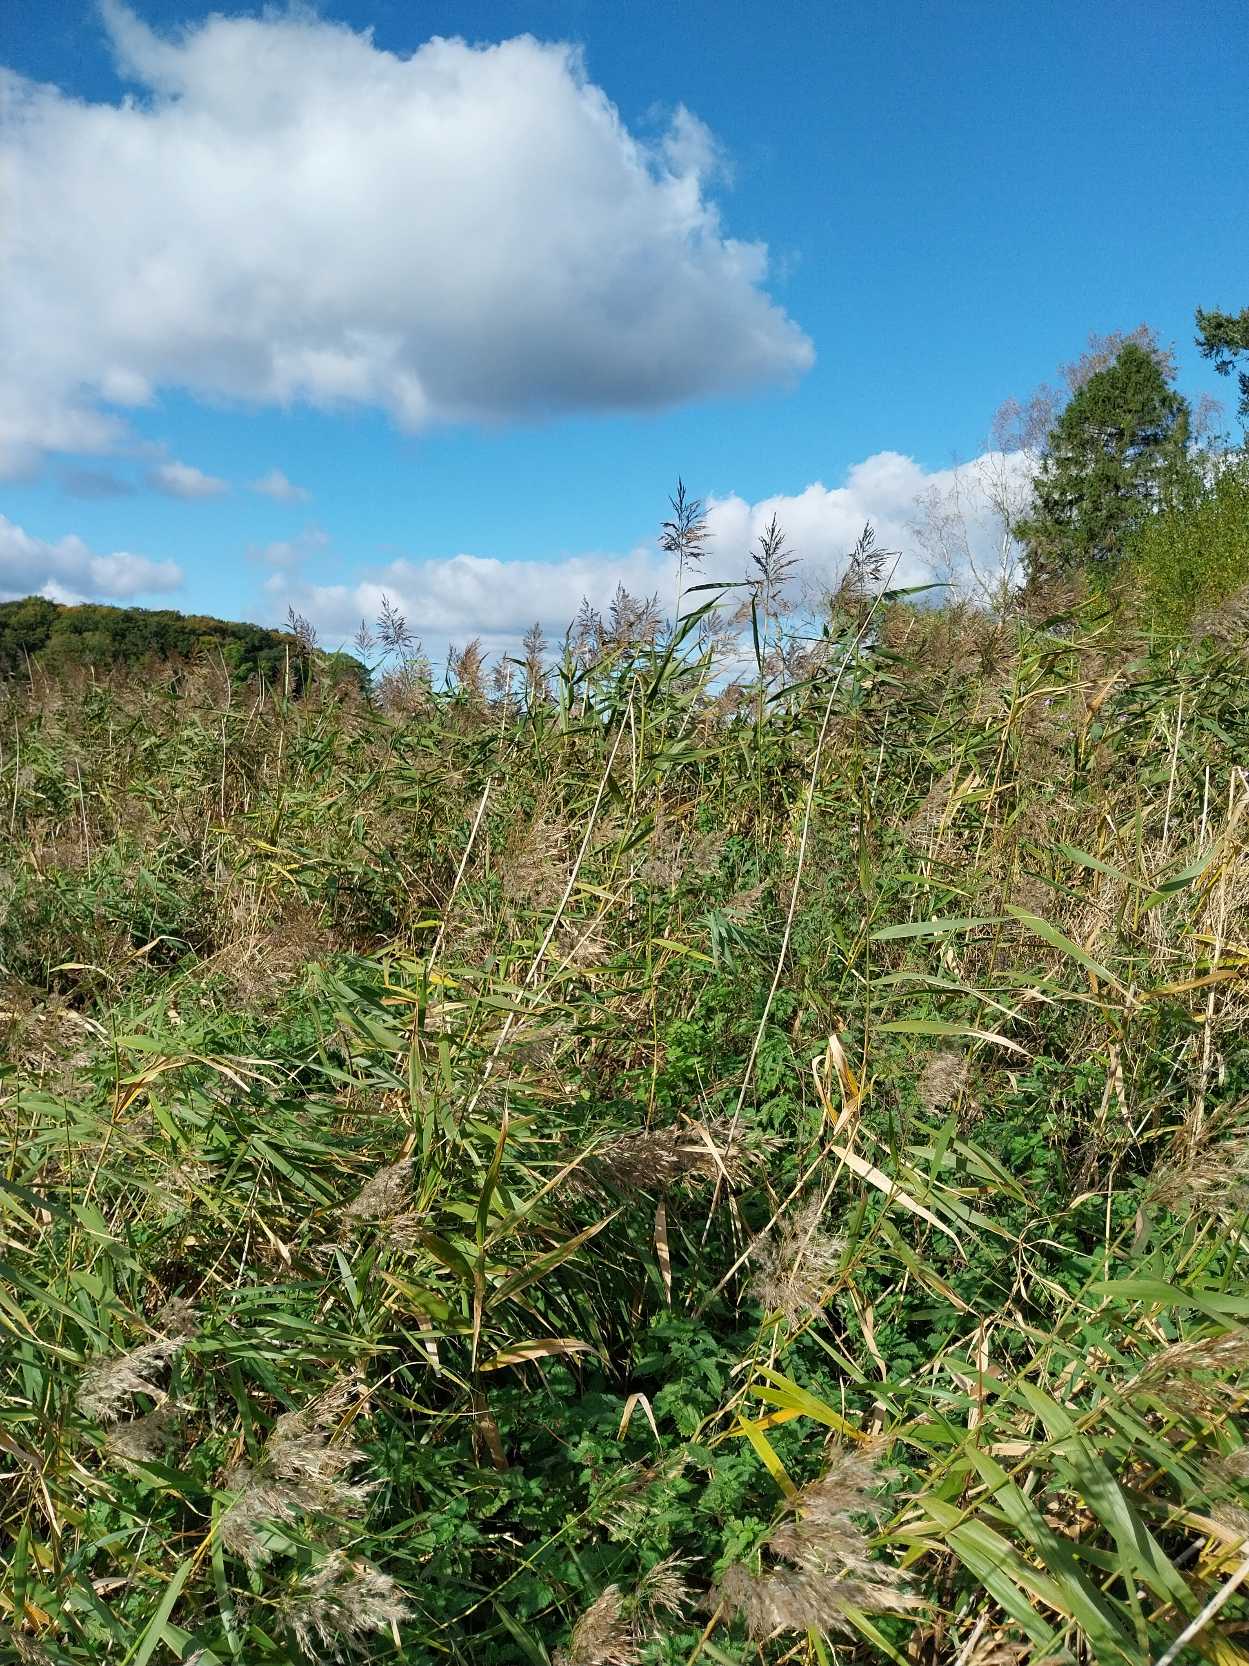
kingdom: Plantae
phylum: Tracheophyta
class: Liliopsida
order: Poales
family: Poaceae
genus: Phragmites
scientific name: Phragmites australis
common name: Tagrør
